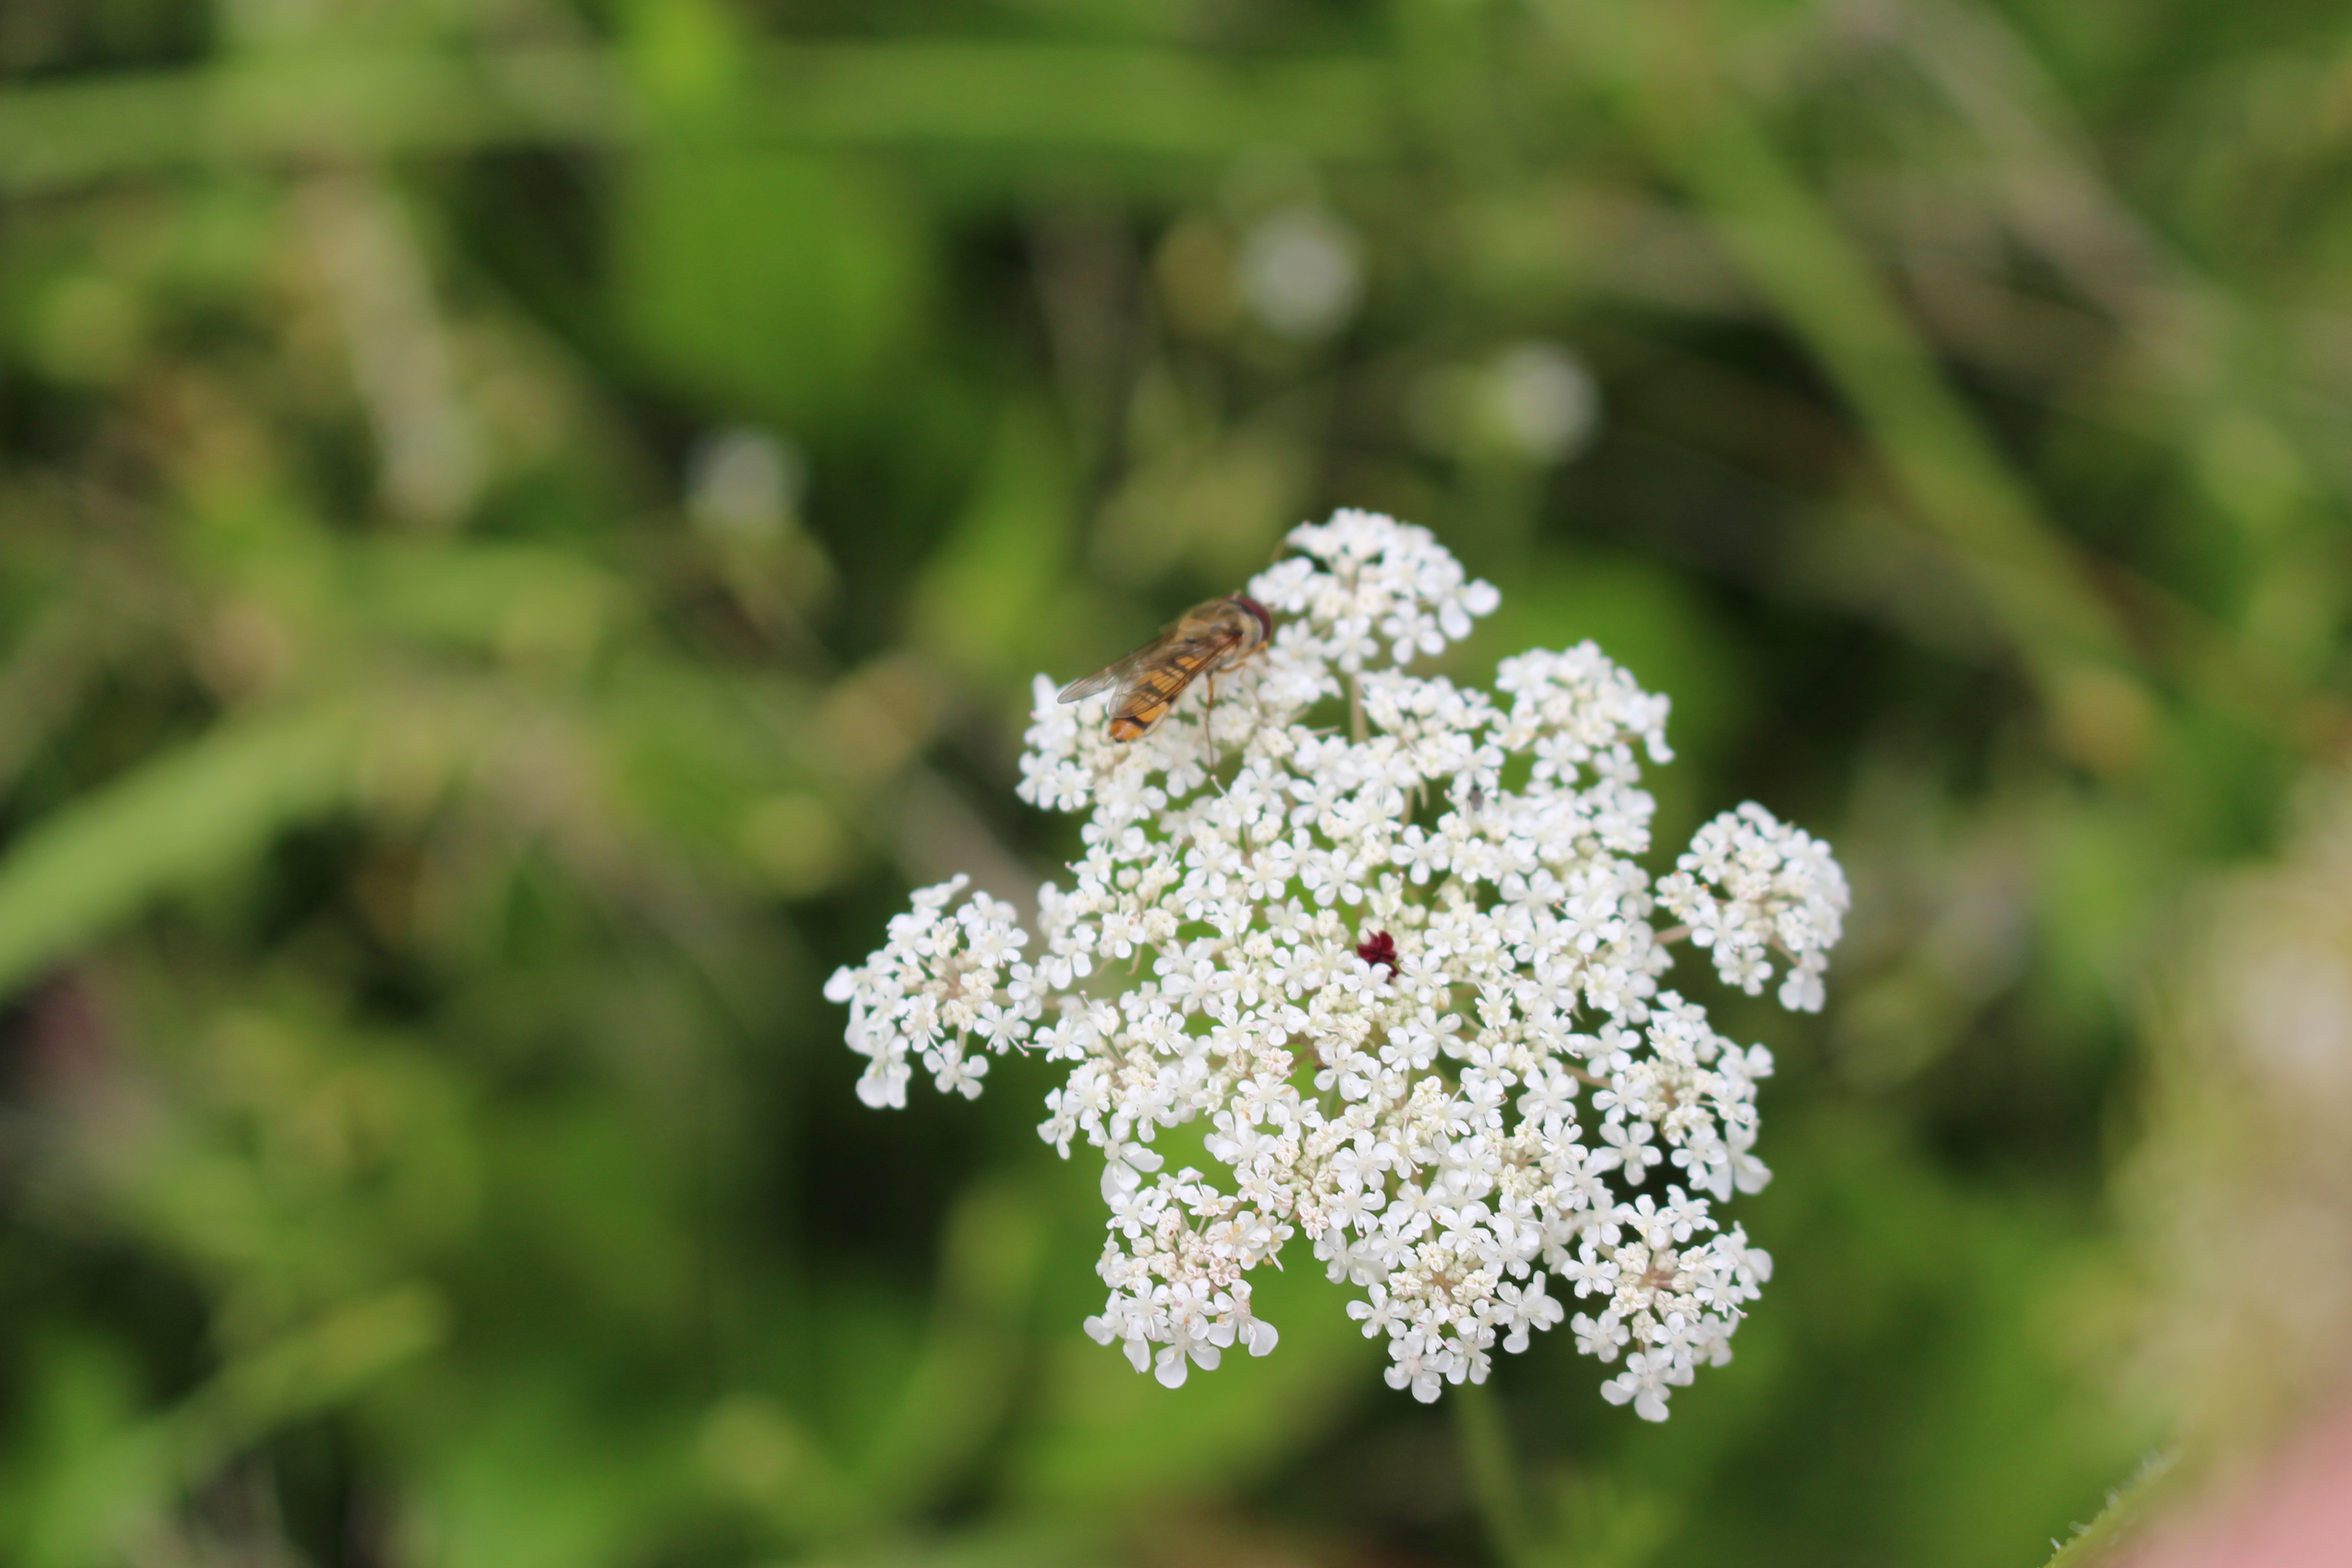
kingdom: Animalia
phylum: Arthropoda
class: Insecta
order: Diptera
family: Syrphidae
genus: Episyrphus
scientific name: Episyrphus balteatus
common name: Dobbeltbåndet svirreflue
